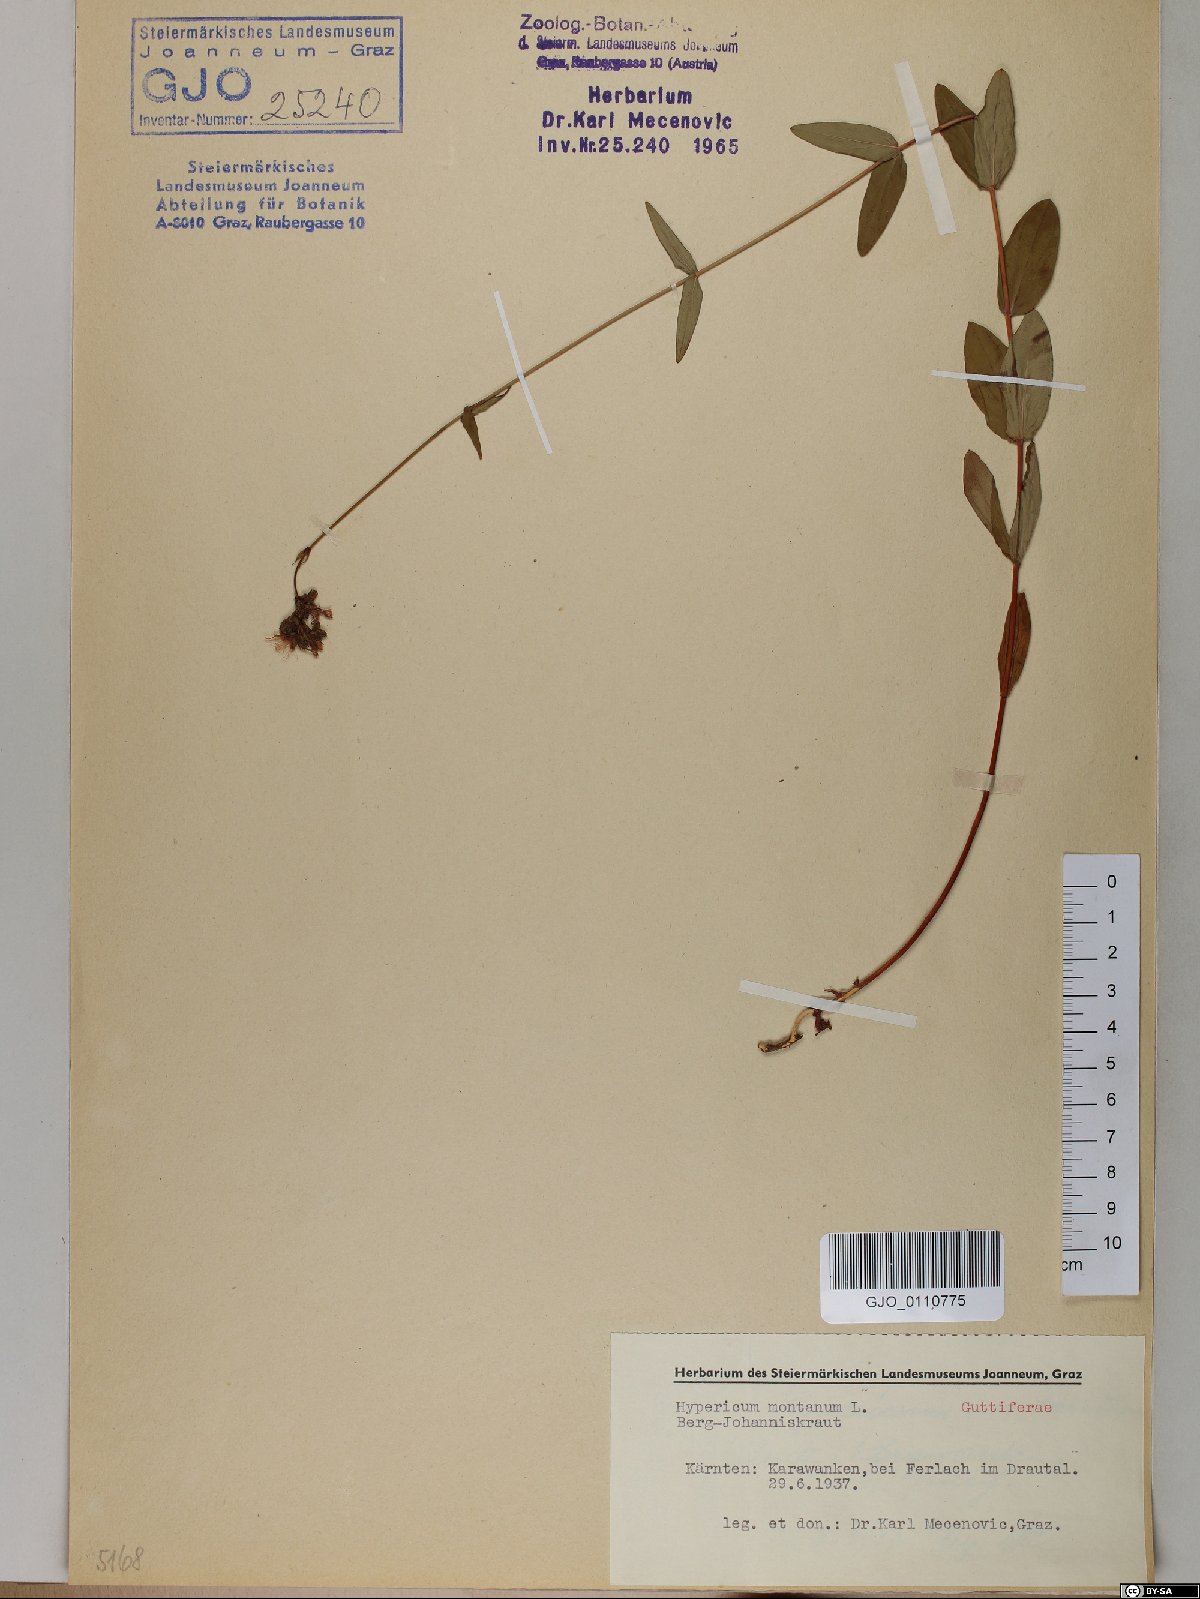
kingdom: Plantae
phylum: Tracheophyta
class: Magnoliopsida
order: Malpighiales
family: Hypericaceae
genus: Hypericum
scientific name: Hypericum montanum
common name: Pale st. john's-wort
